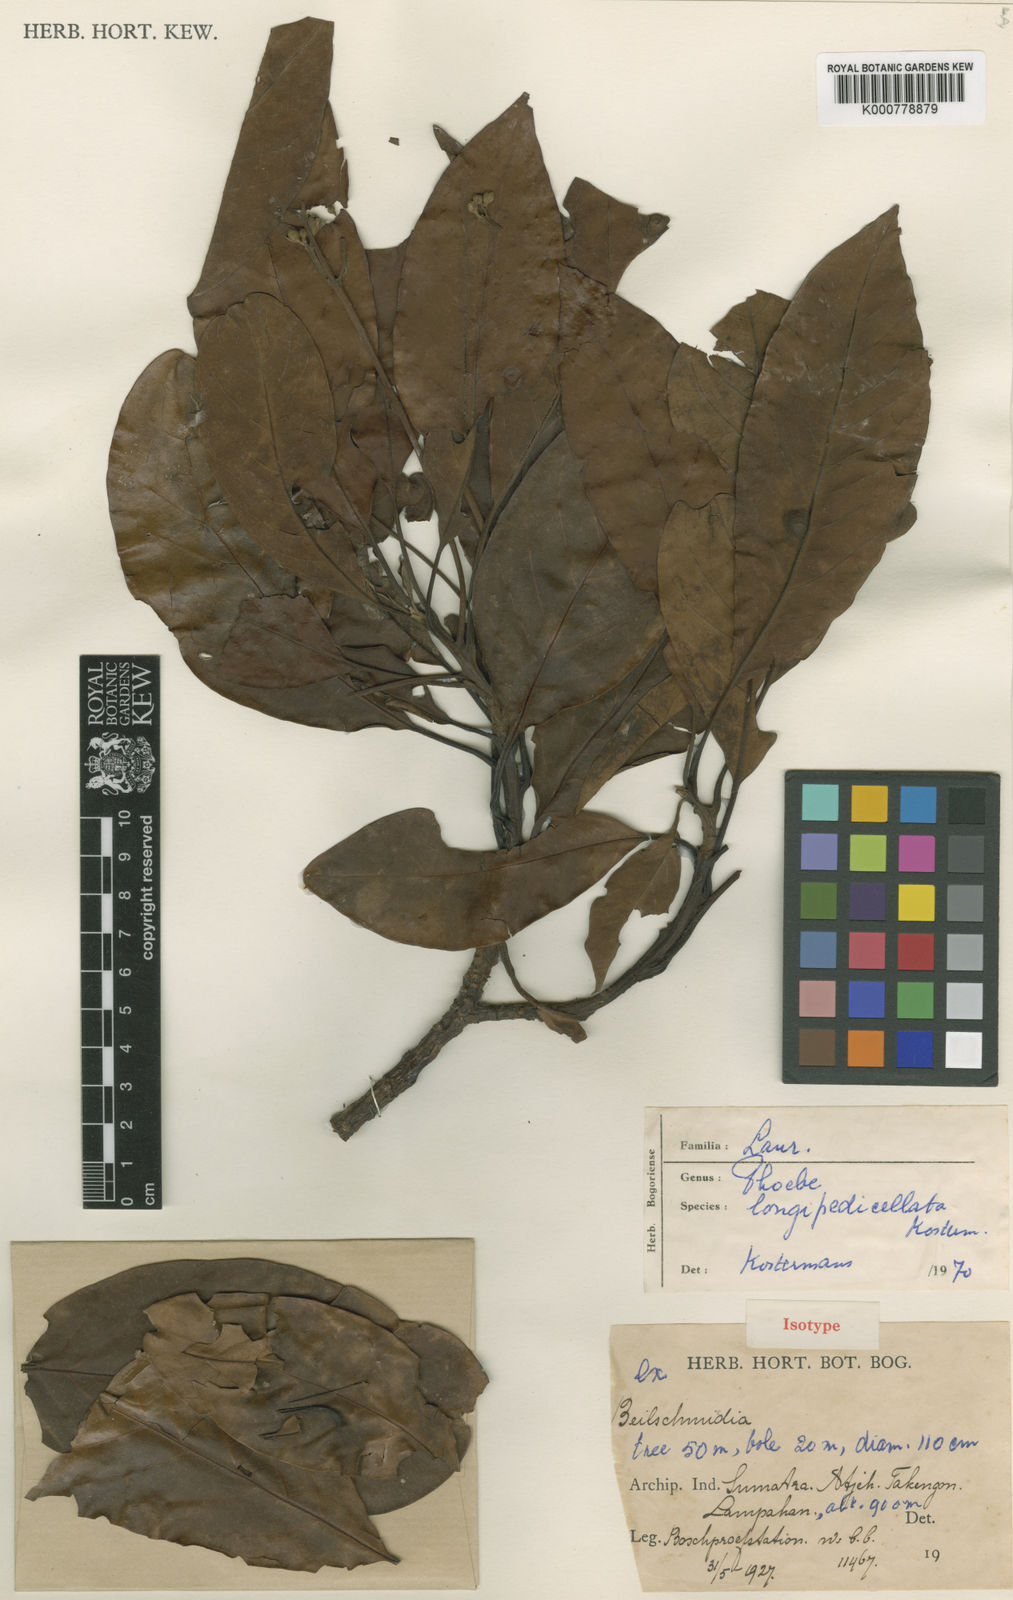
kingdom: Plantae
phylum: Tracheophyta
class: Magnoliopsida
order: Laurales
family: Lauraceae
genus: Phoebe
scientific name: Phoebe
